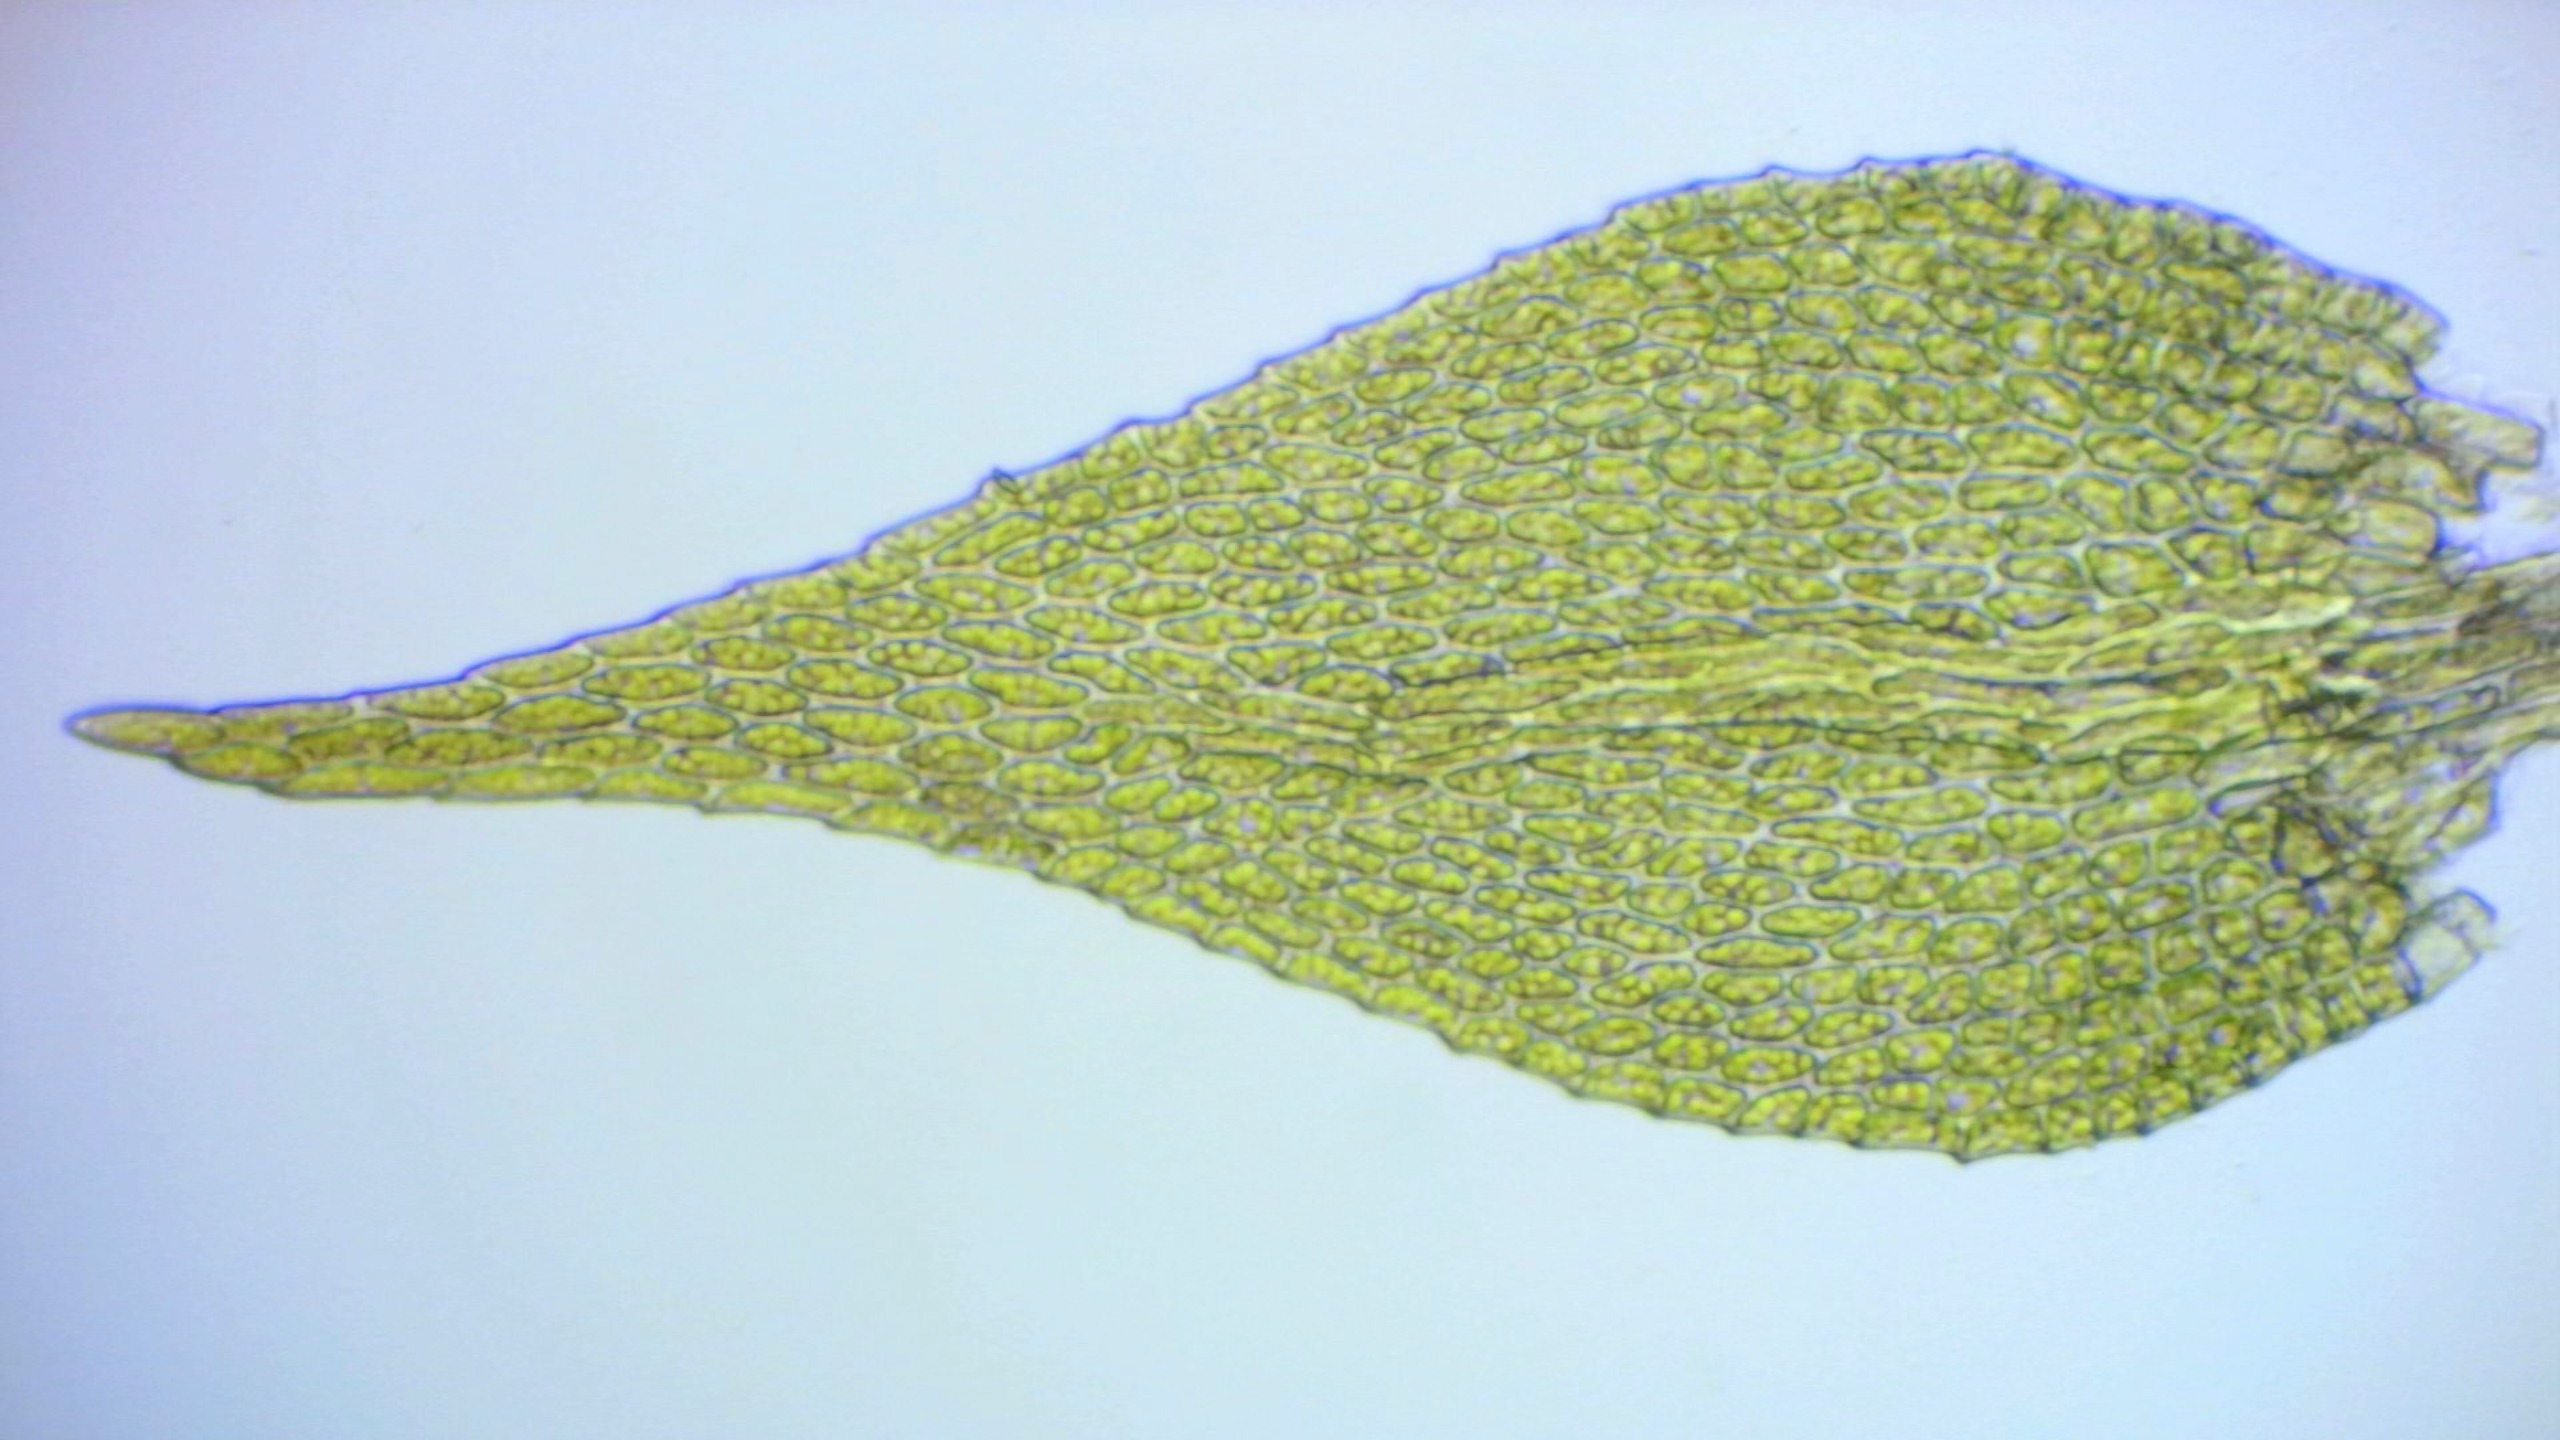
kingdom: Plantae
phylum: Bryophyta
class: Bryopsida
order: Hypnales
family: Amblystegiaceae
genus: Amblystegium
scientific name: Amblystegium serpens
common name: Almindelig krybmos
